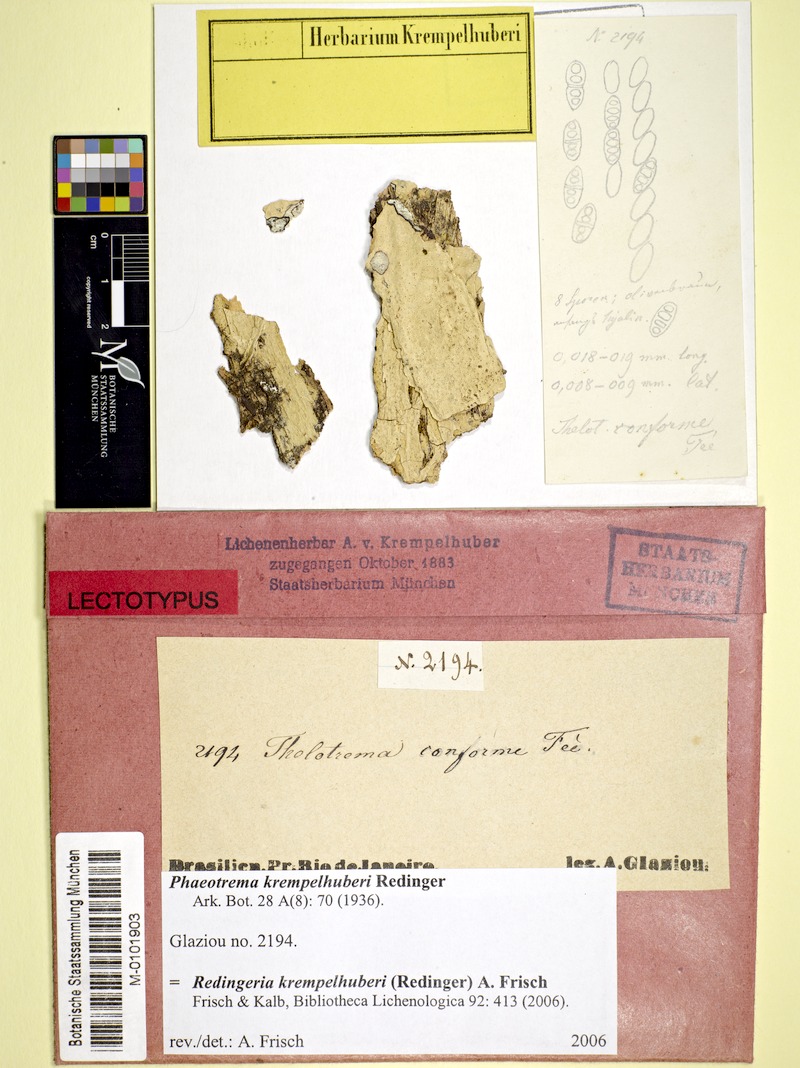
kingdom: Fungi
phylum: Ascomycota
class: Lecanoromycetes
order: Ostropales
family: Graphidaceae
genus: Redingeria
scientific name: Redingeria krempelhuberi
